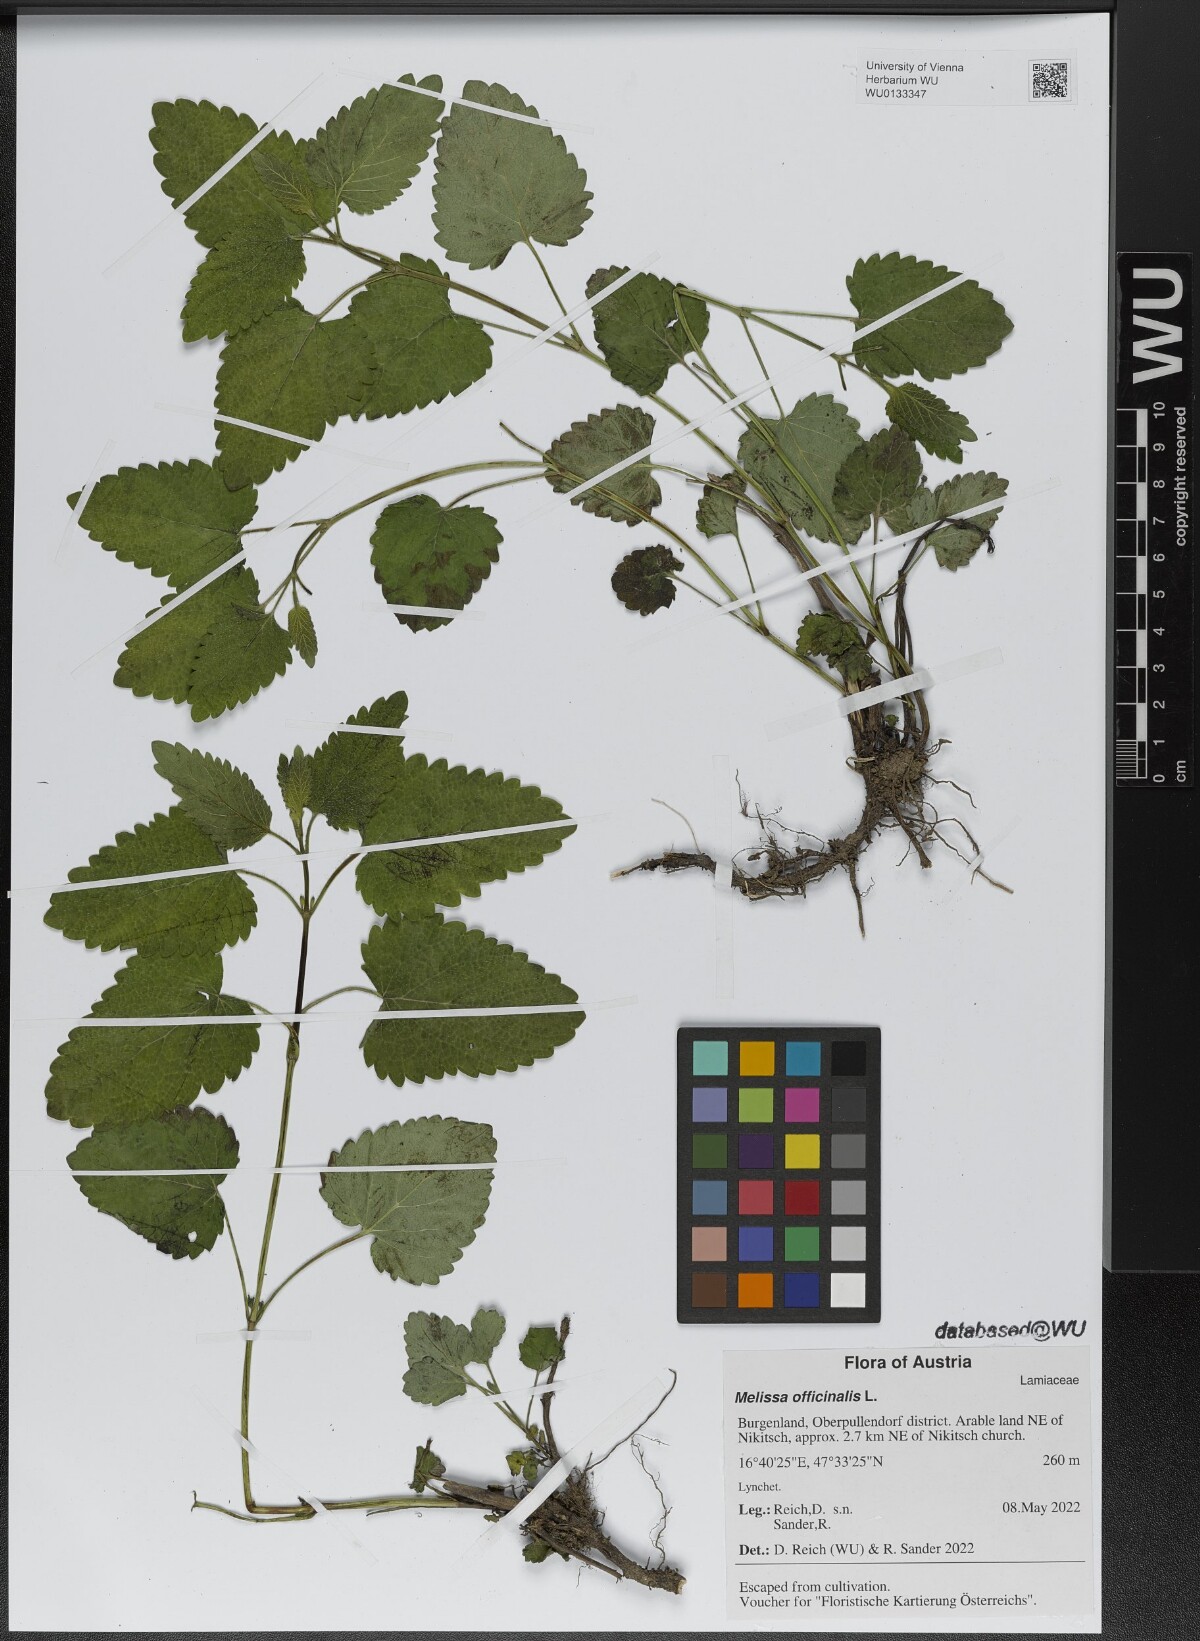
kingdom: Plantae
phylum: Tracheophyta
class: Magnoliopsida
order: Lamiales
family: Lamiaceae
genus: Melissa
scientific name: Melissa officinalis
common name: Balm
